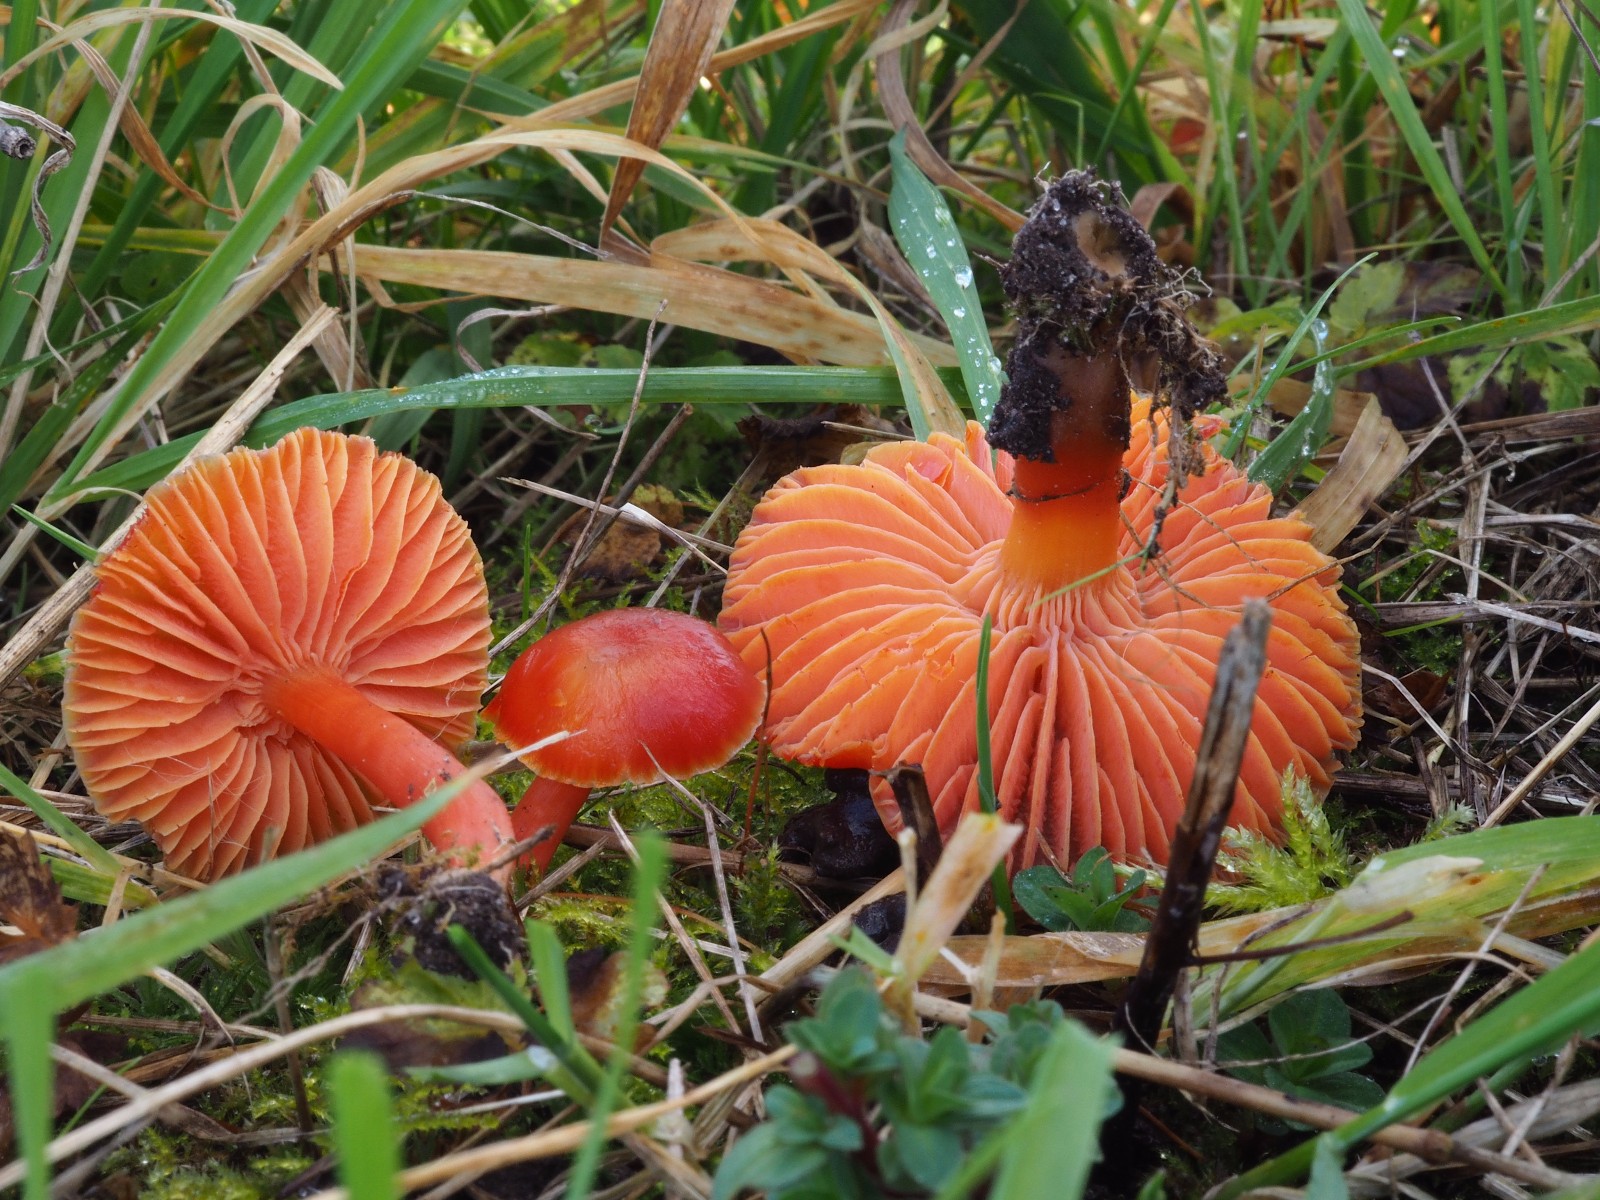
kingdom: Fungi
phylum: Basidiomycota
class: Agaricomycetes
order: Agaricales
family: Hygrophoraceae
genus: Hygrocybe
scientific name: Hygrocybe coccinea
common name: cinnober-vokshat
